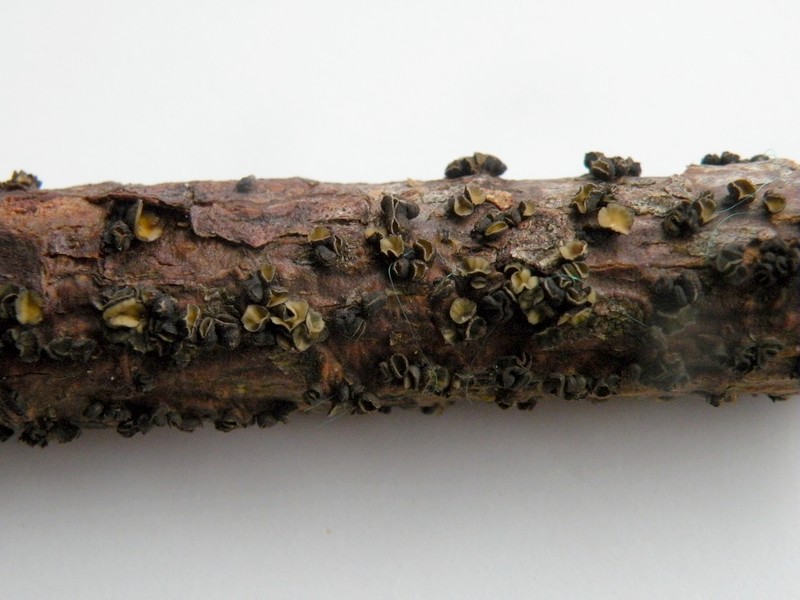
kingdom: Fungi
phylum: Ascomycota
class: Leotiomycetes
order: Helotiales
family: Cenangiaceae
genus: Cenangium
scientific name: Cenangium ferruginosum
